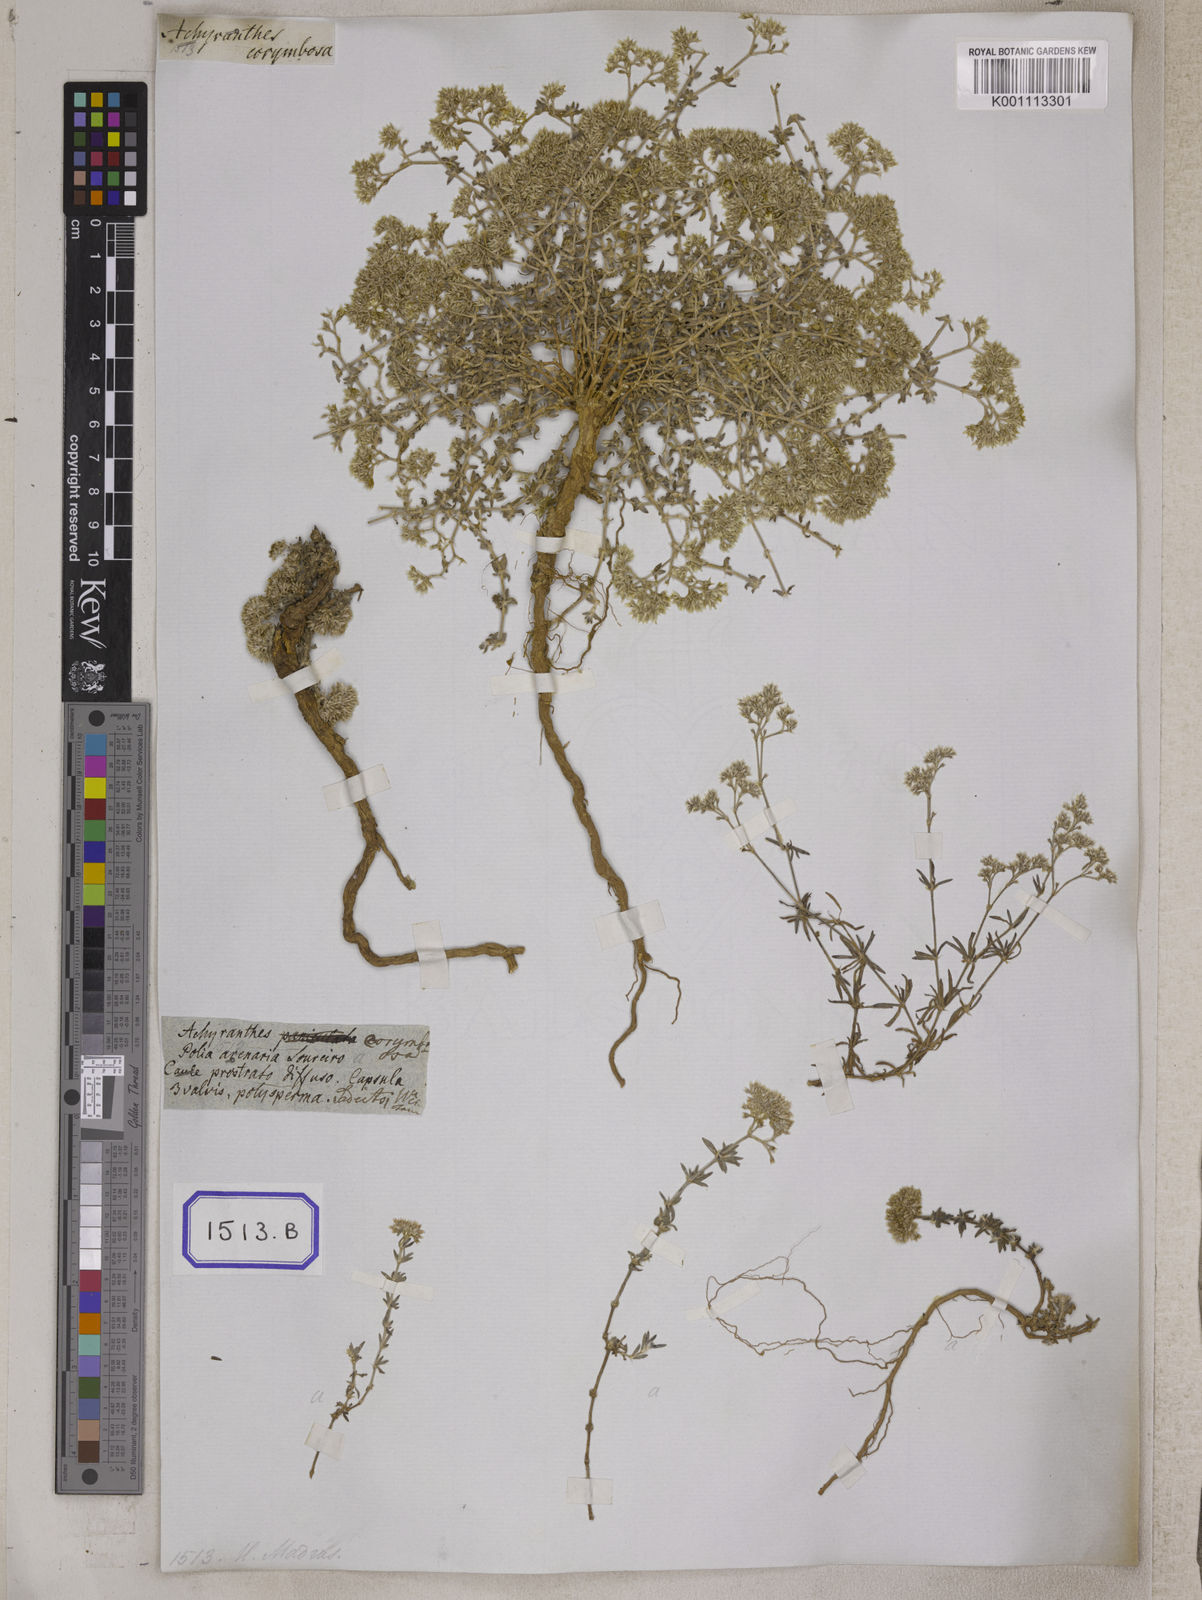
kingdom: Plantae
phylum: Tracheophyta
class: Magnoliopsida
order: Caryophyllales
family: Caryophyllaceae
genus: Polycarpaea
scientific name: Polycarpaea corymbosa
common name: Oldman's cap
